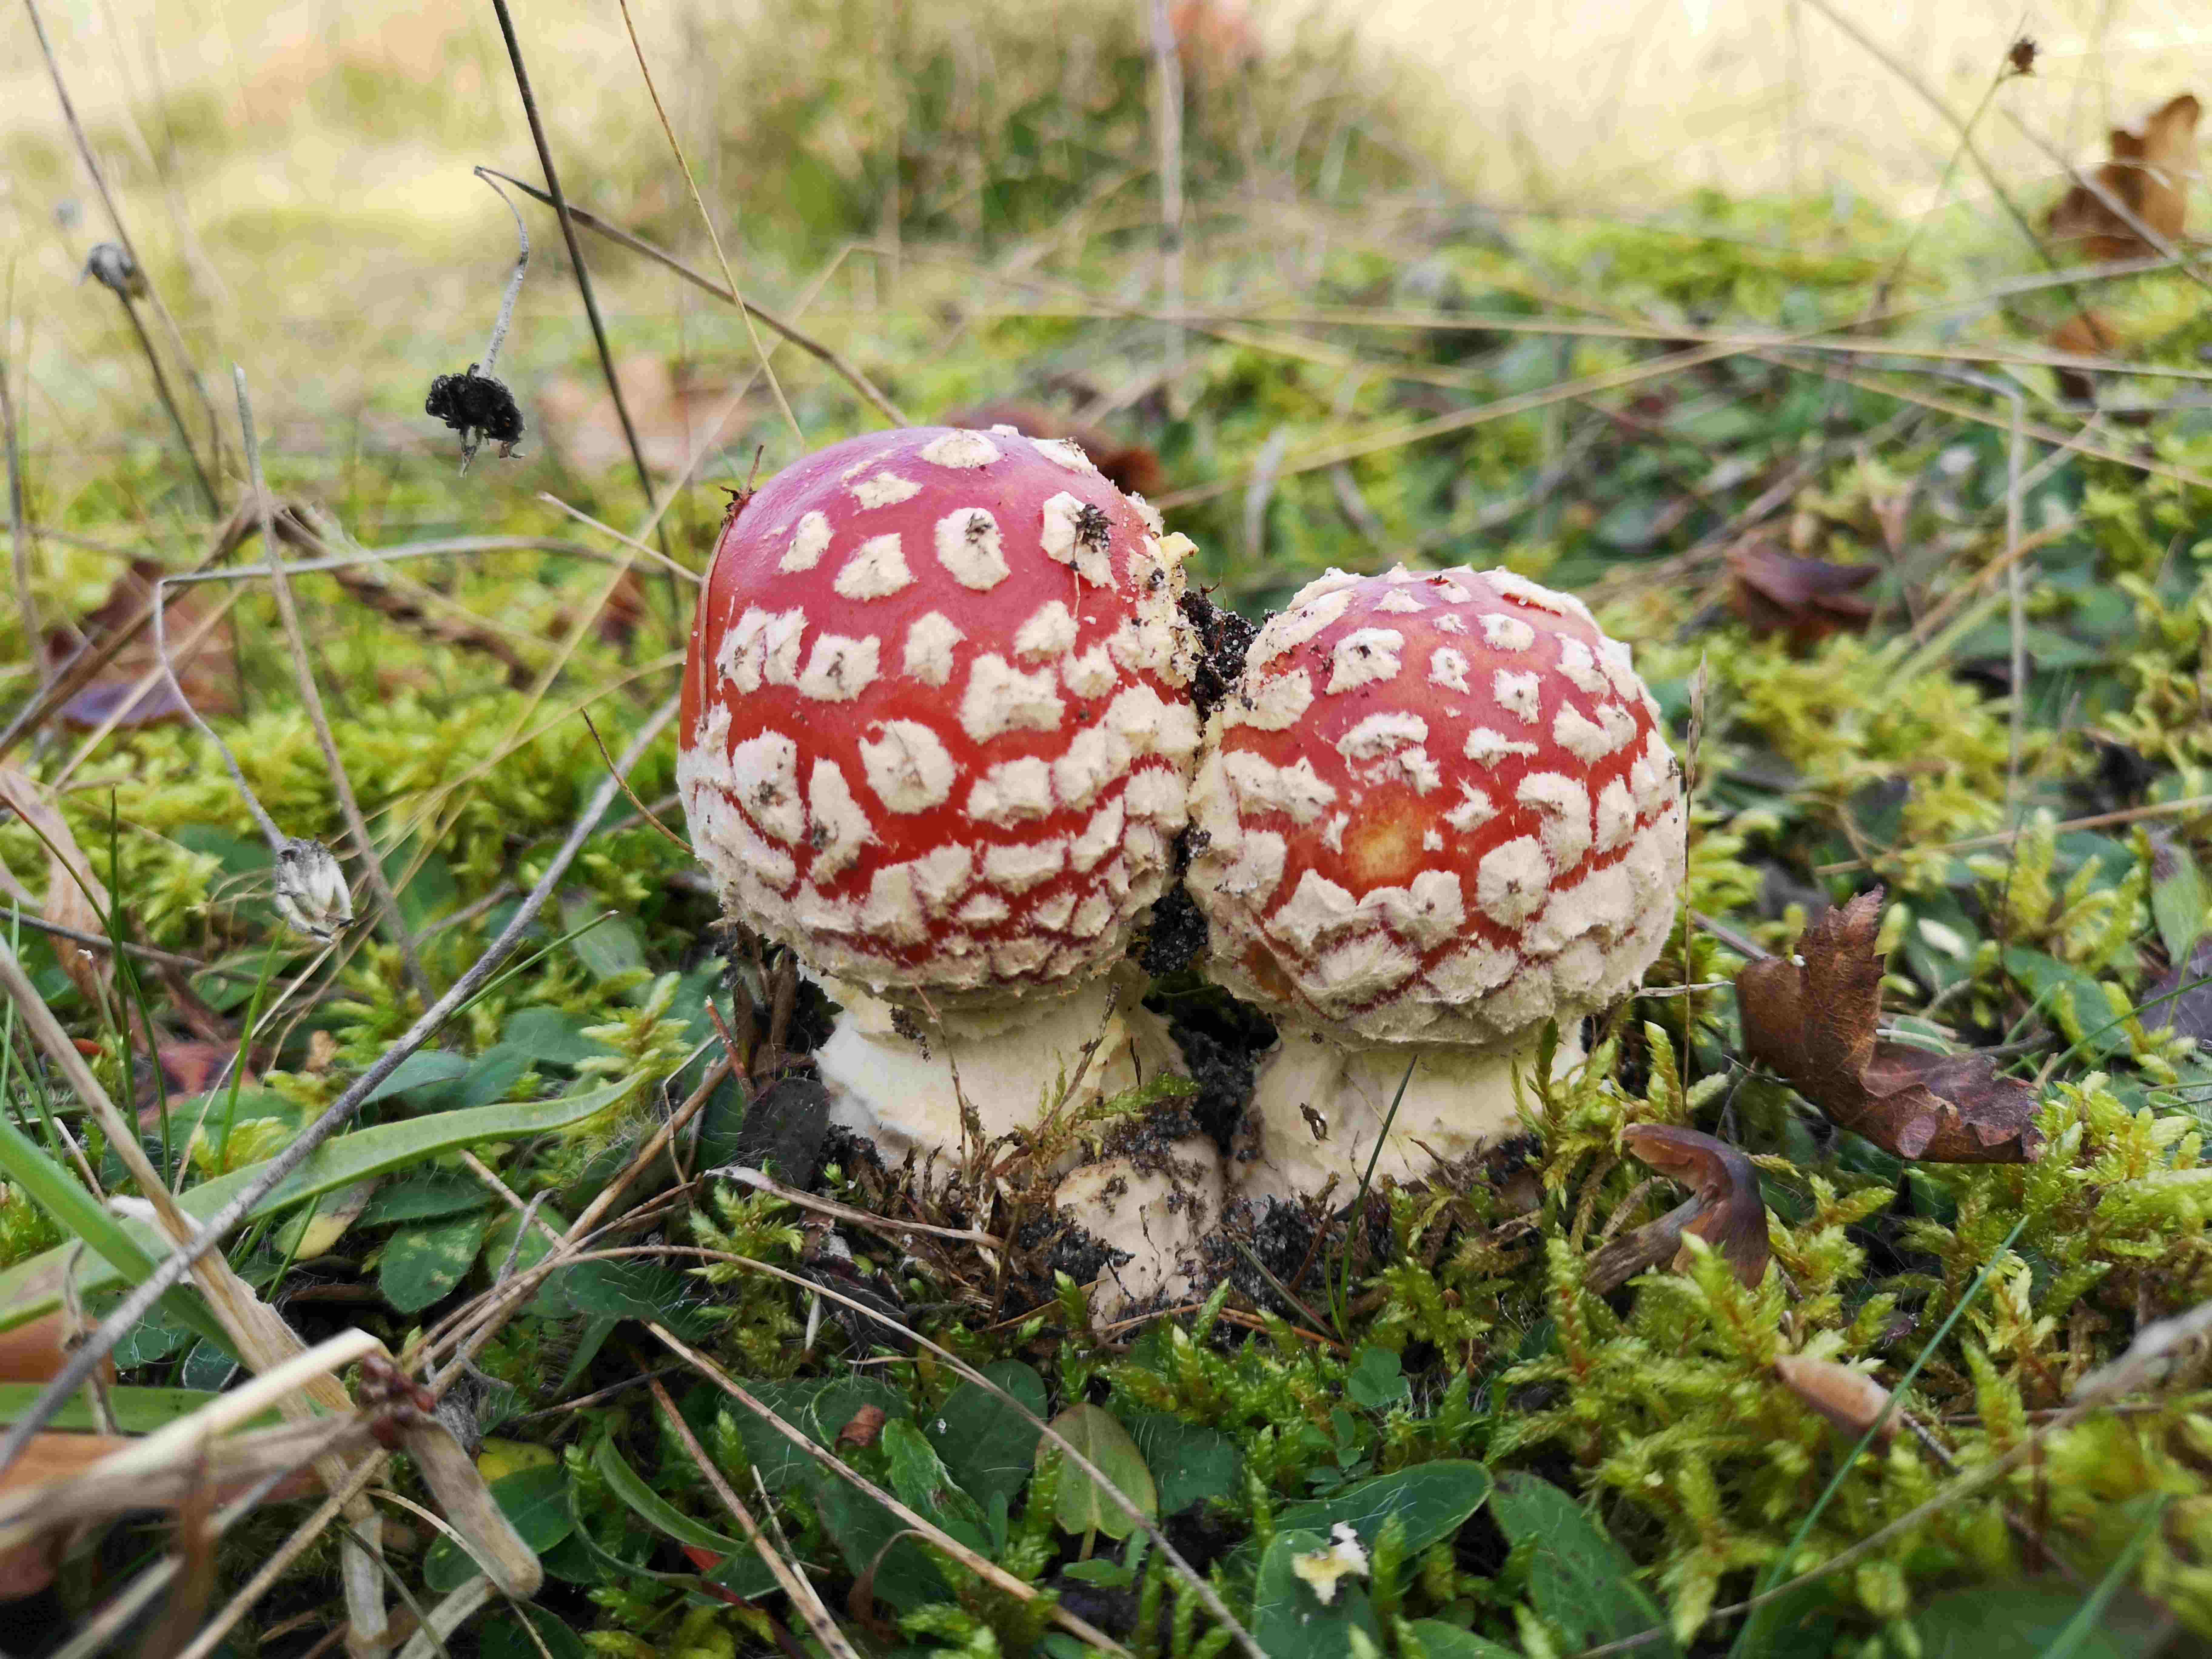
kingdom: Fungi
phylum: Basidiomycota
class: Agaricomycetes
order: Agaricales
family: Amanitaceae
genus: Amanita
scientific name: Amanita muscaria
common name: rød fluesvamp
